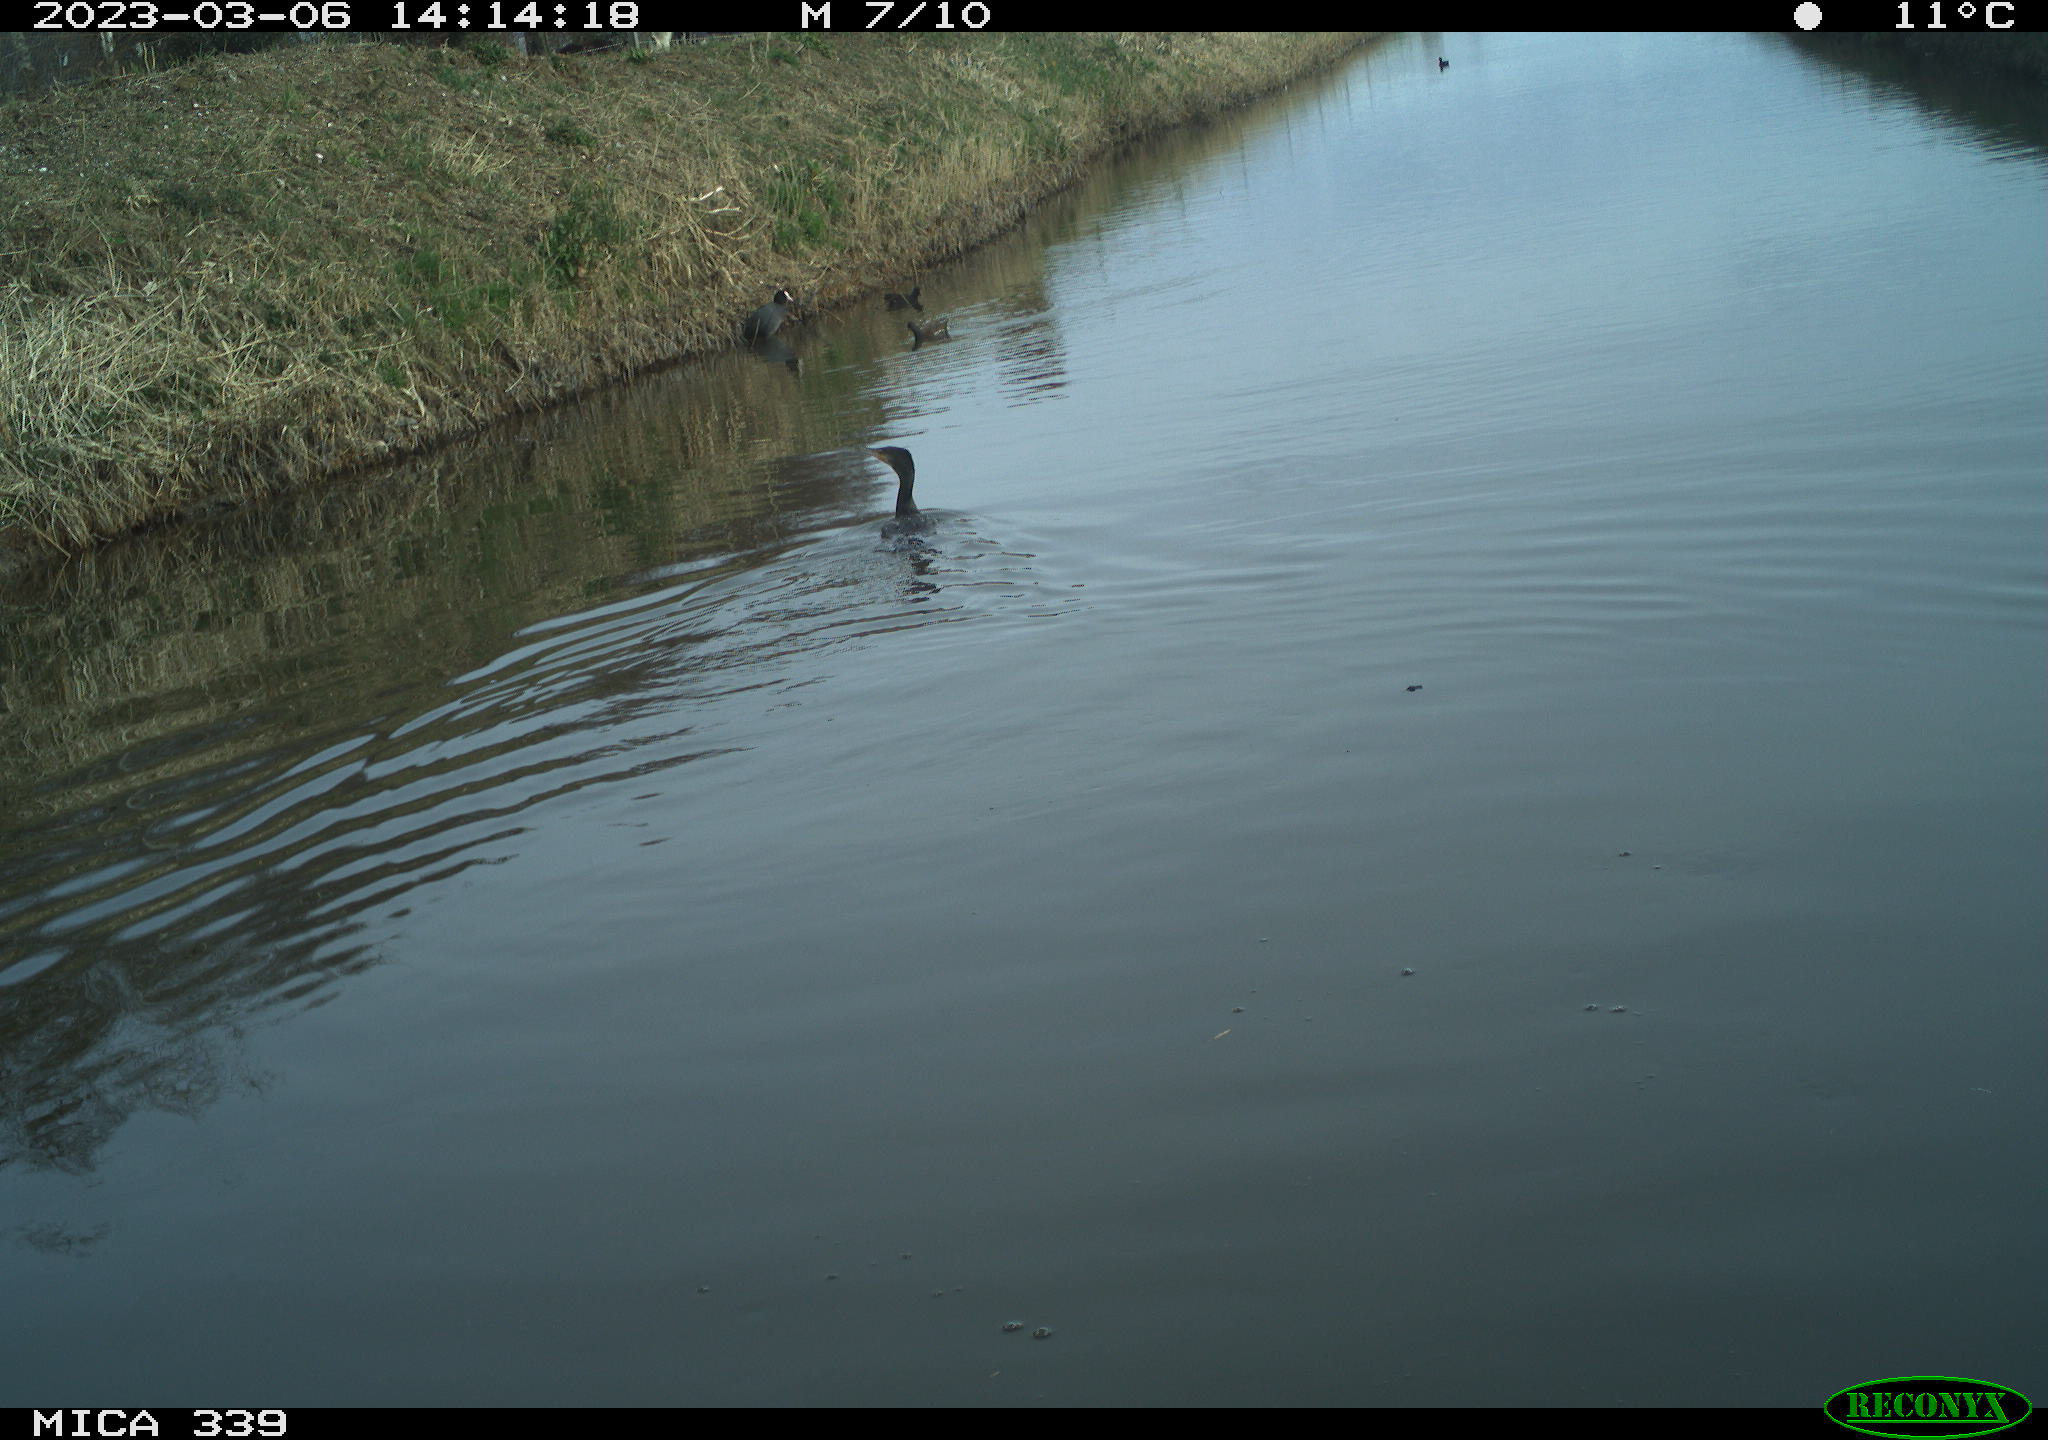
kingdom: Animalia
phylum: Chordata
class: Aves
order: Suliformes
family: Phalacrocoracidae
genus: Phalacrocorax
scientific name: Phalacrocorax carbo
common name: Great cormorant
